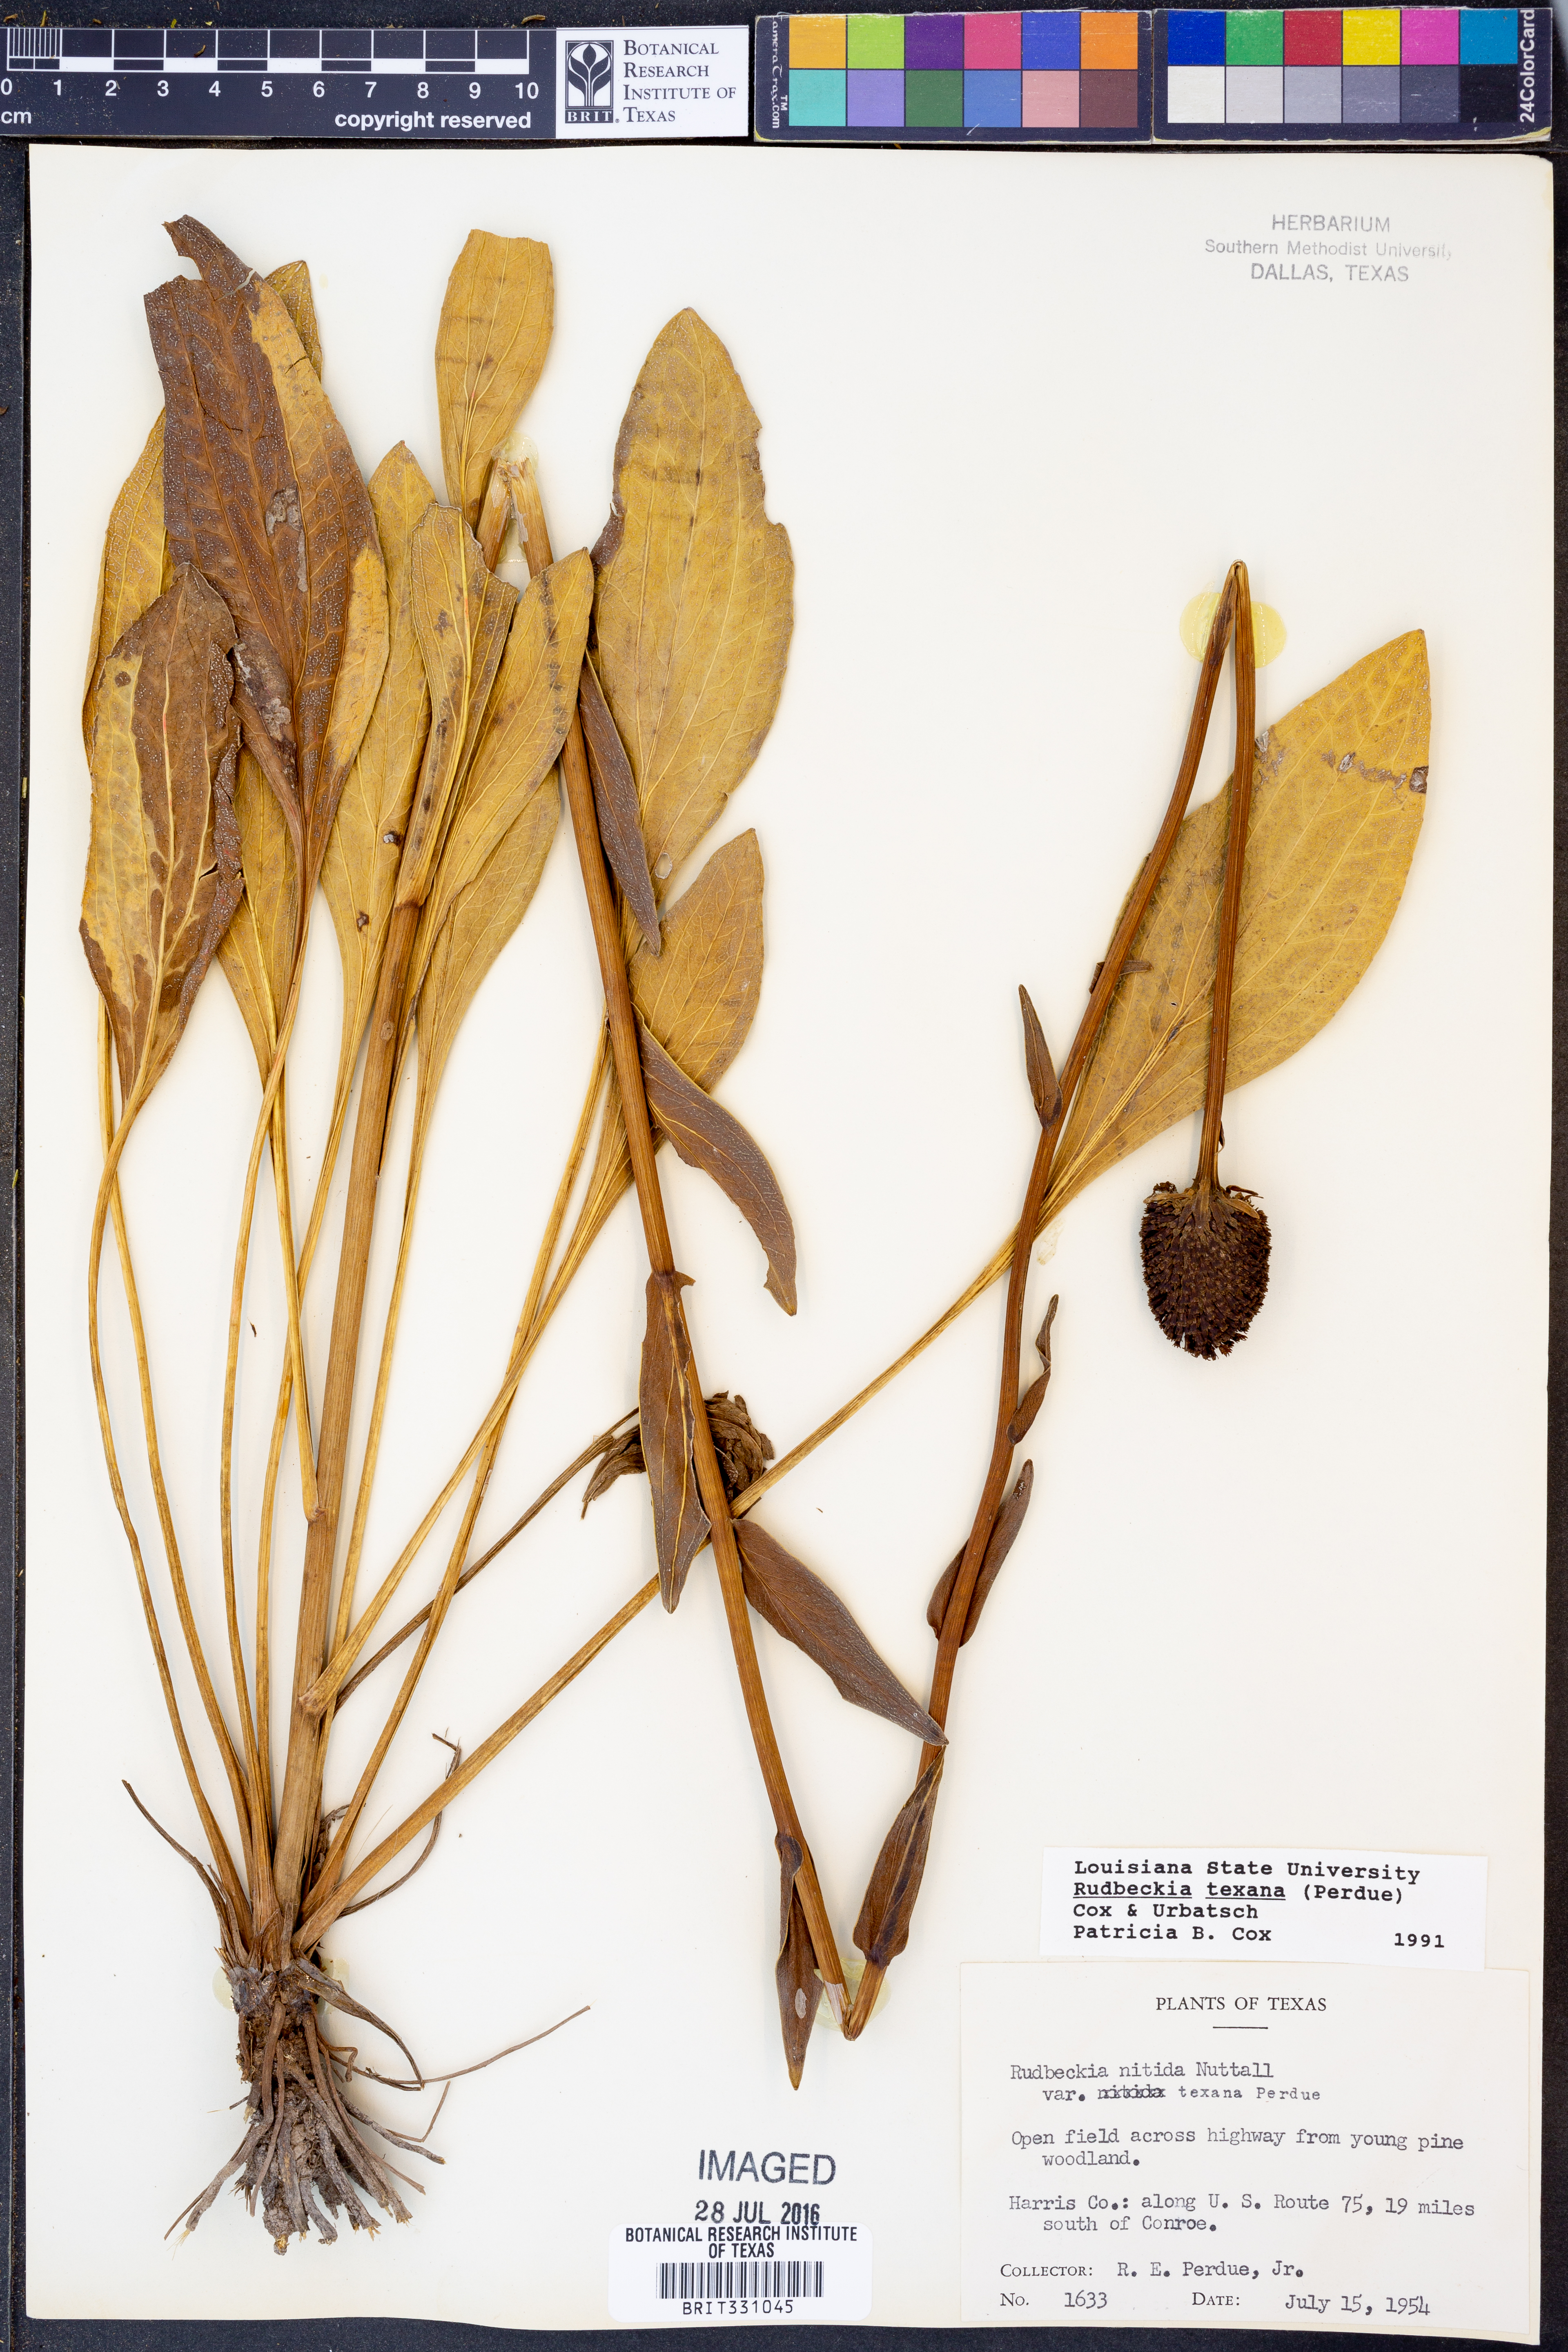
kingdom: Plantae
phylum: Tracheophyta
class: Magnoliopsida
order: Asterales
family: Asteraceae
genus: Rudbeckia
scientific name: Rudbeckia texana
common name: Texas coneflower
